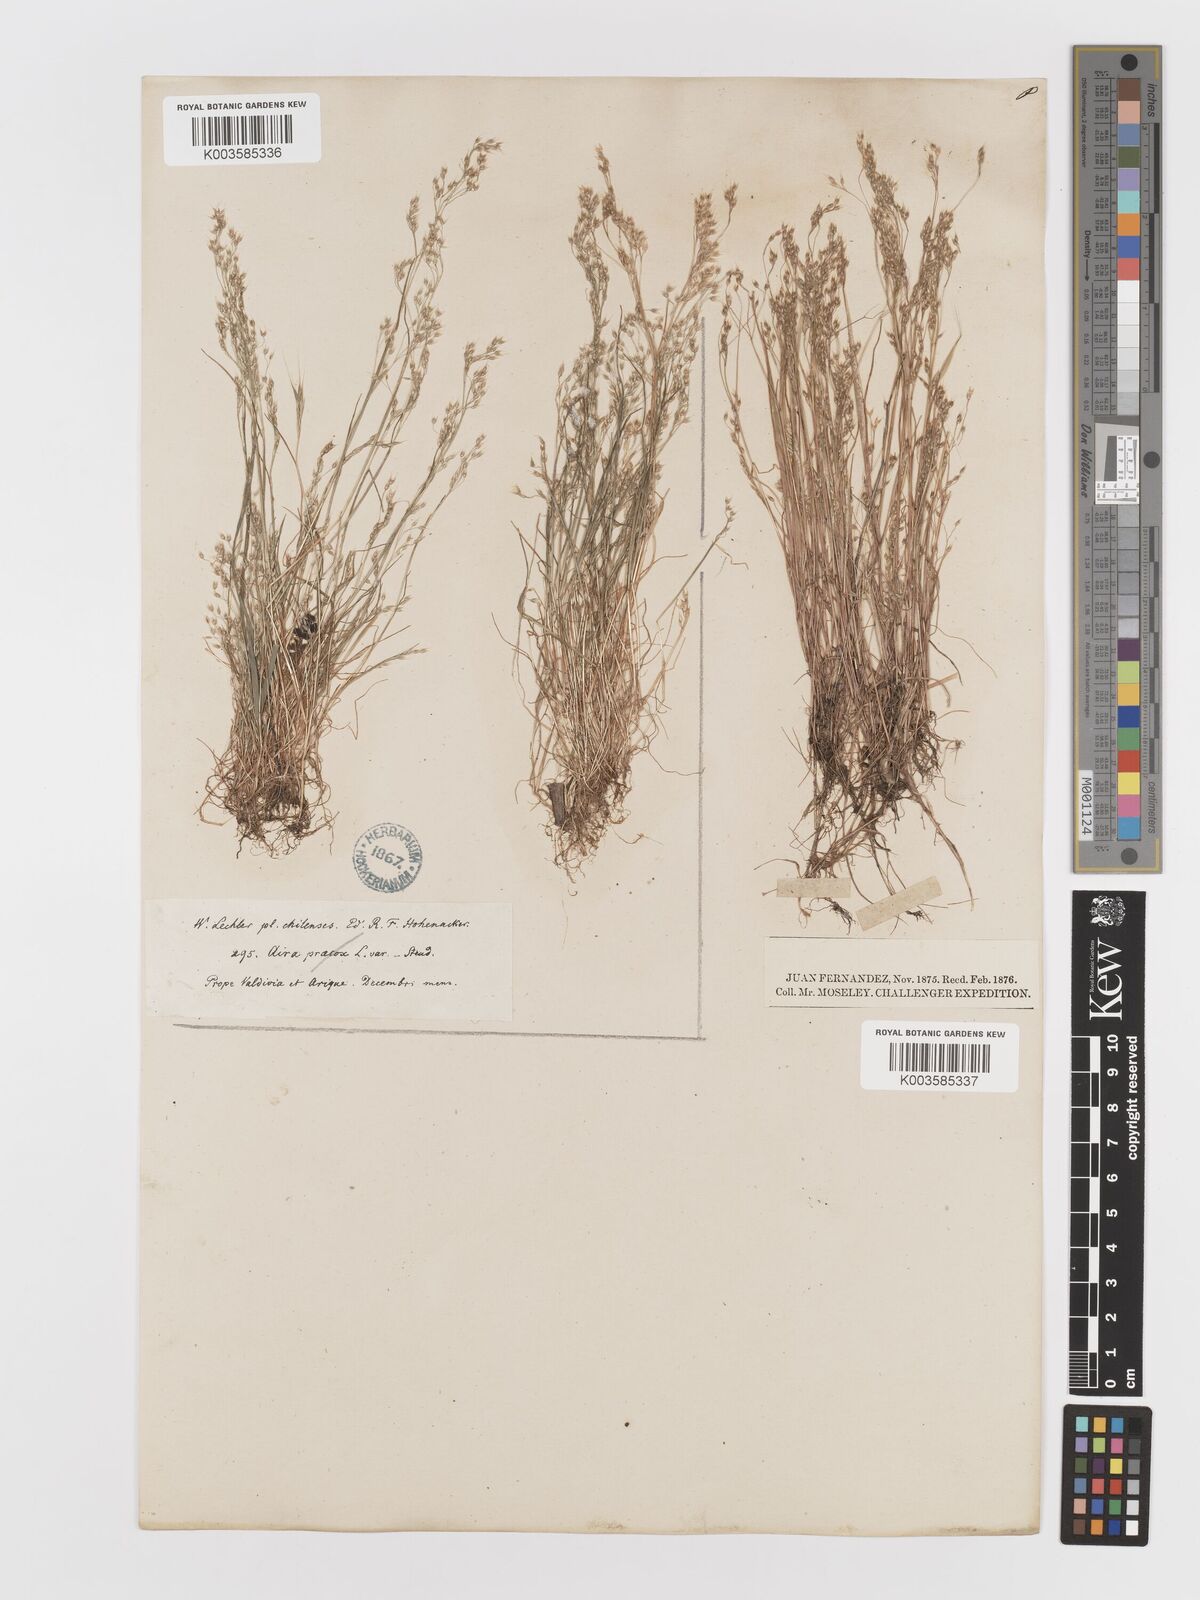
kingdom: Plantae
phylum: Tracheophyta
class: Liliopsida
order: Poales
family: Poaceae
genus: Aira
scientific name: Aira caryophyllea
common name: Silver hairgrass
